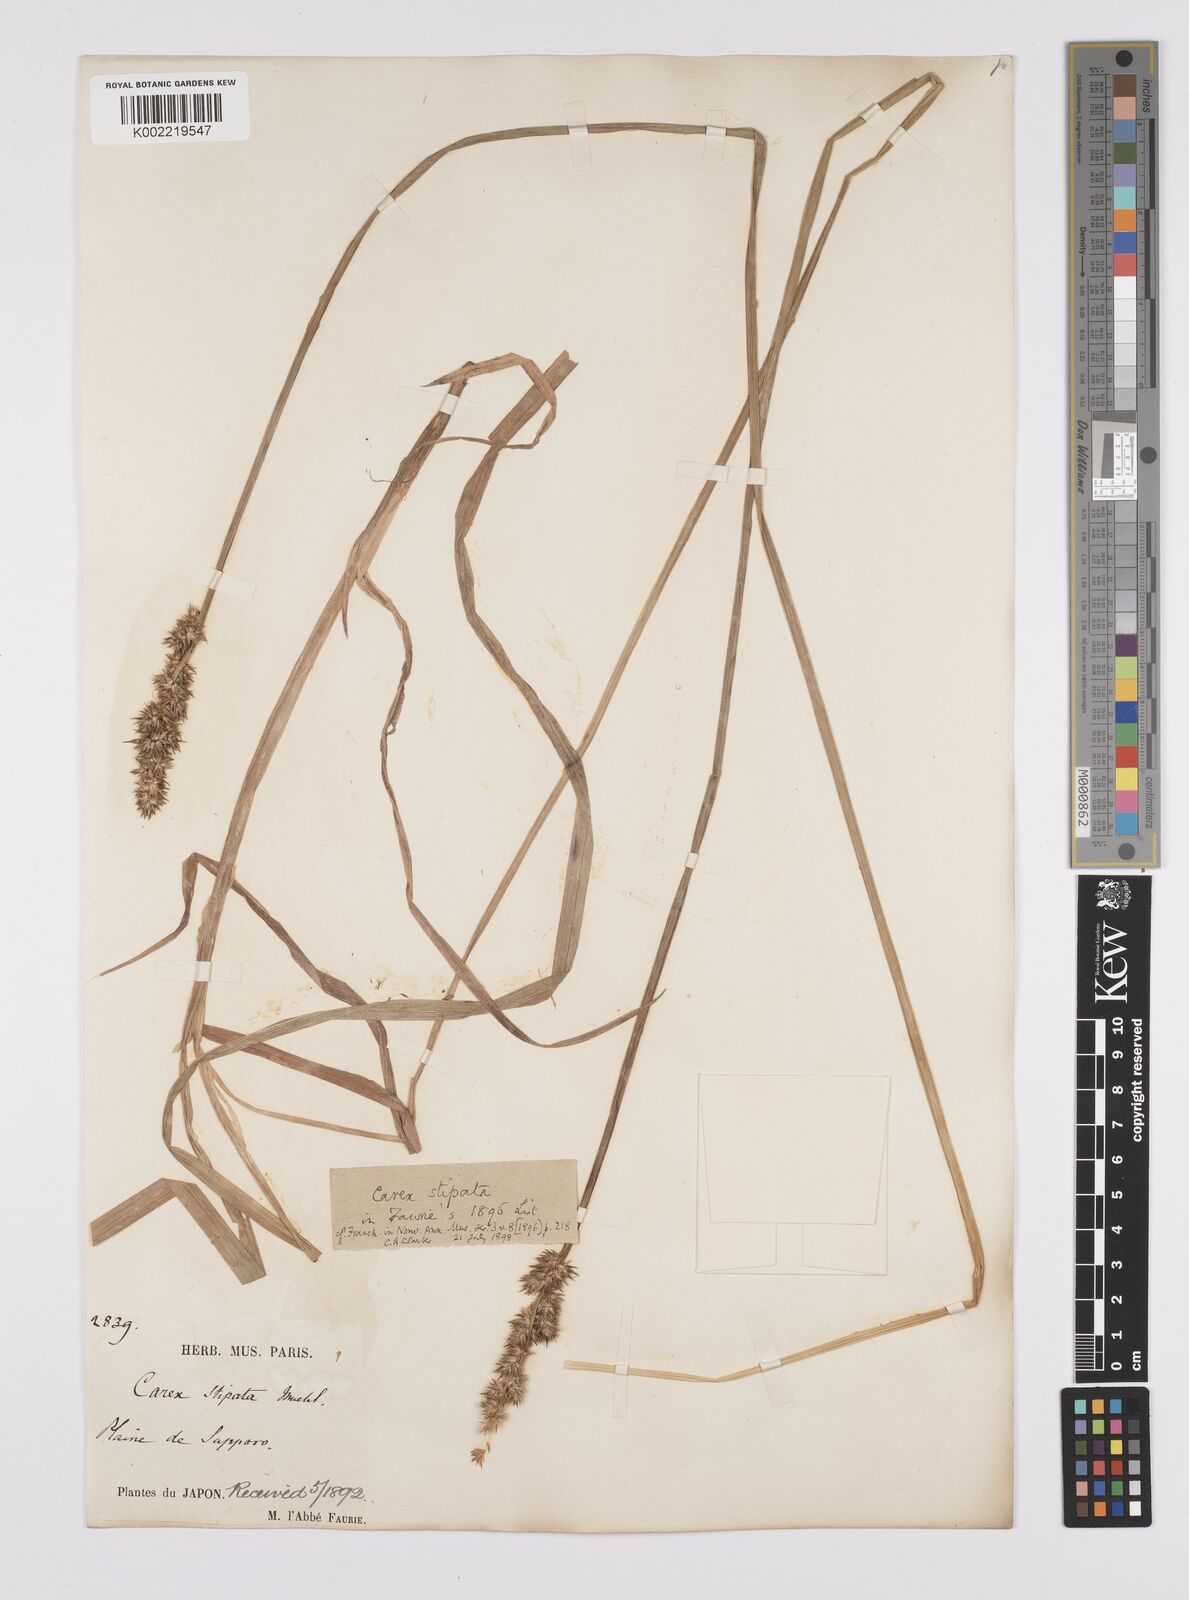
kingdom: Plantae
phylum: Tracheophyta
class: Liliopsida
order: Poales
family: Cyperaceae
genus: Carex
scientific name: Carex stipata
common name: Awl-fruited sedge
